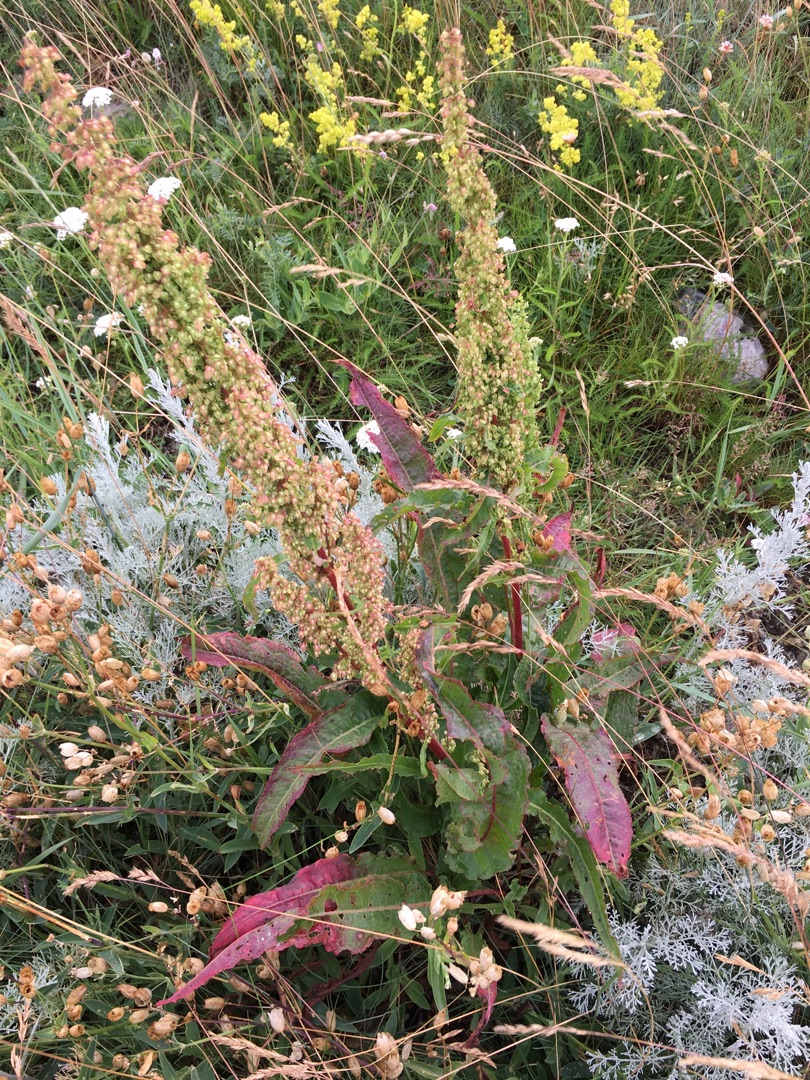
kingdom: Plantae
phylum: Tracheophyta
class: Magnoliopsida
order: Caryophyllales
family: Polygonaceae
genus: Rumex
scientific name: Rumex crispus
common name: Kruset skræppe
